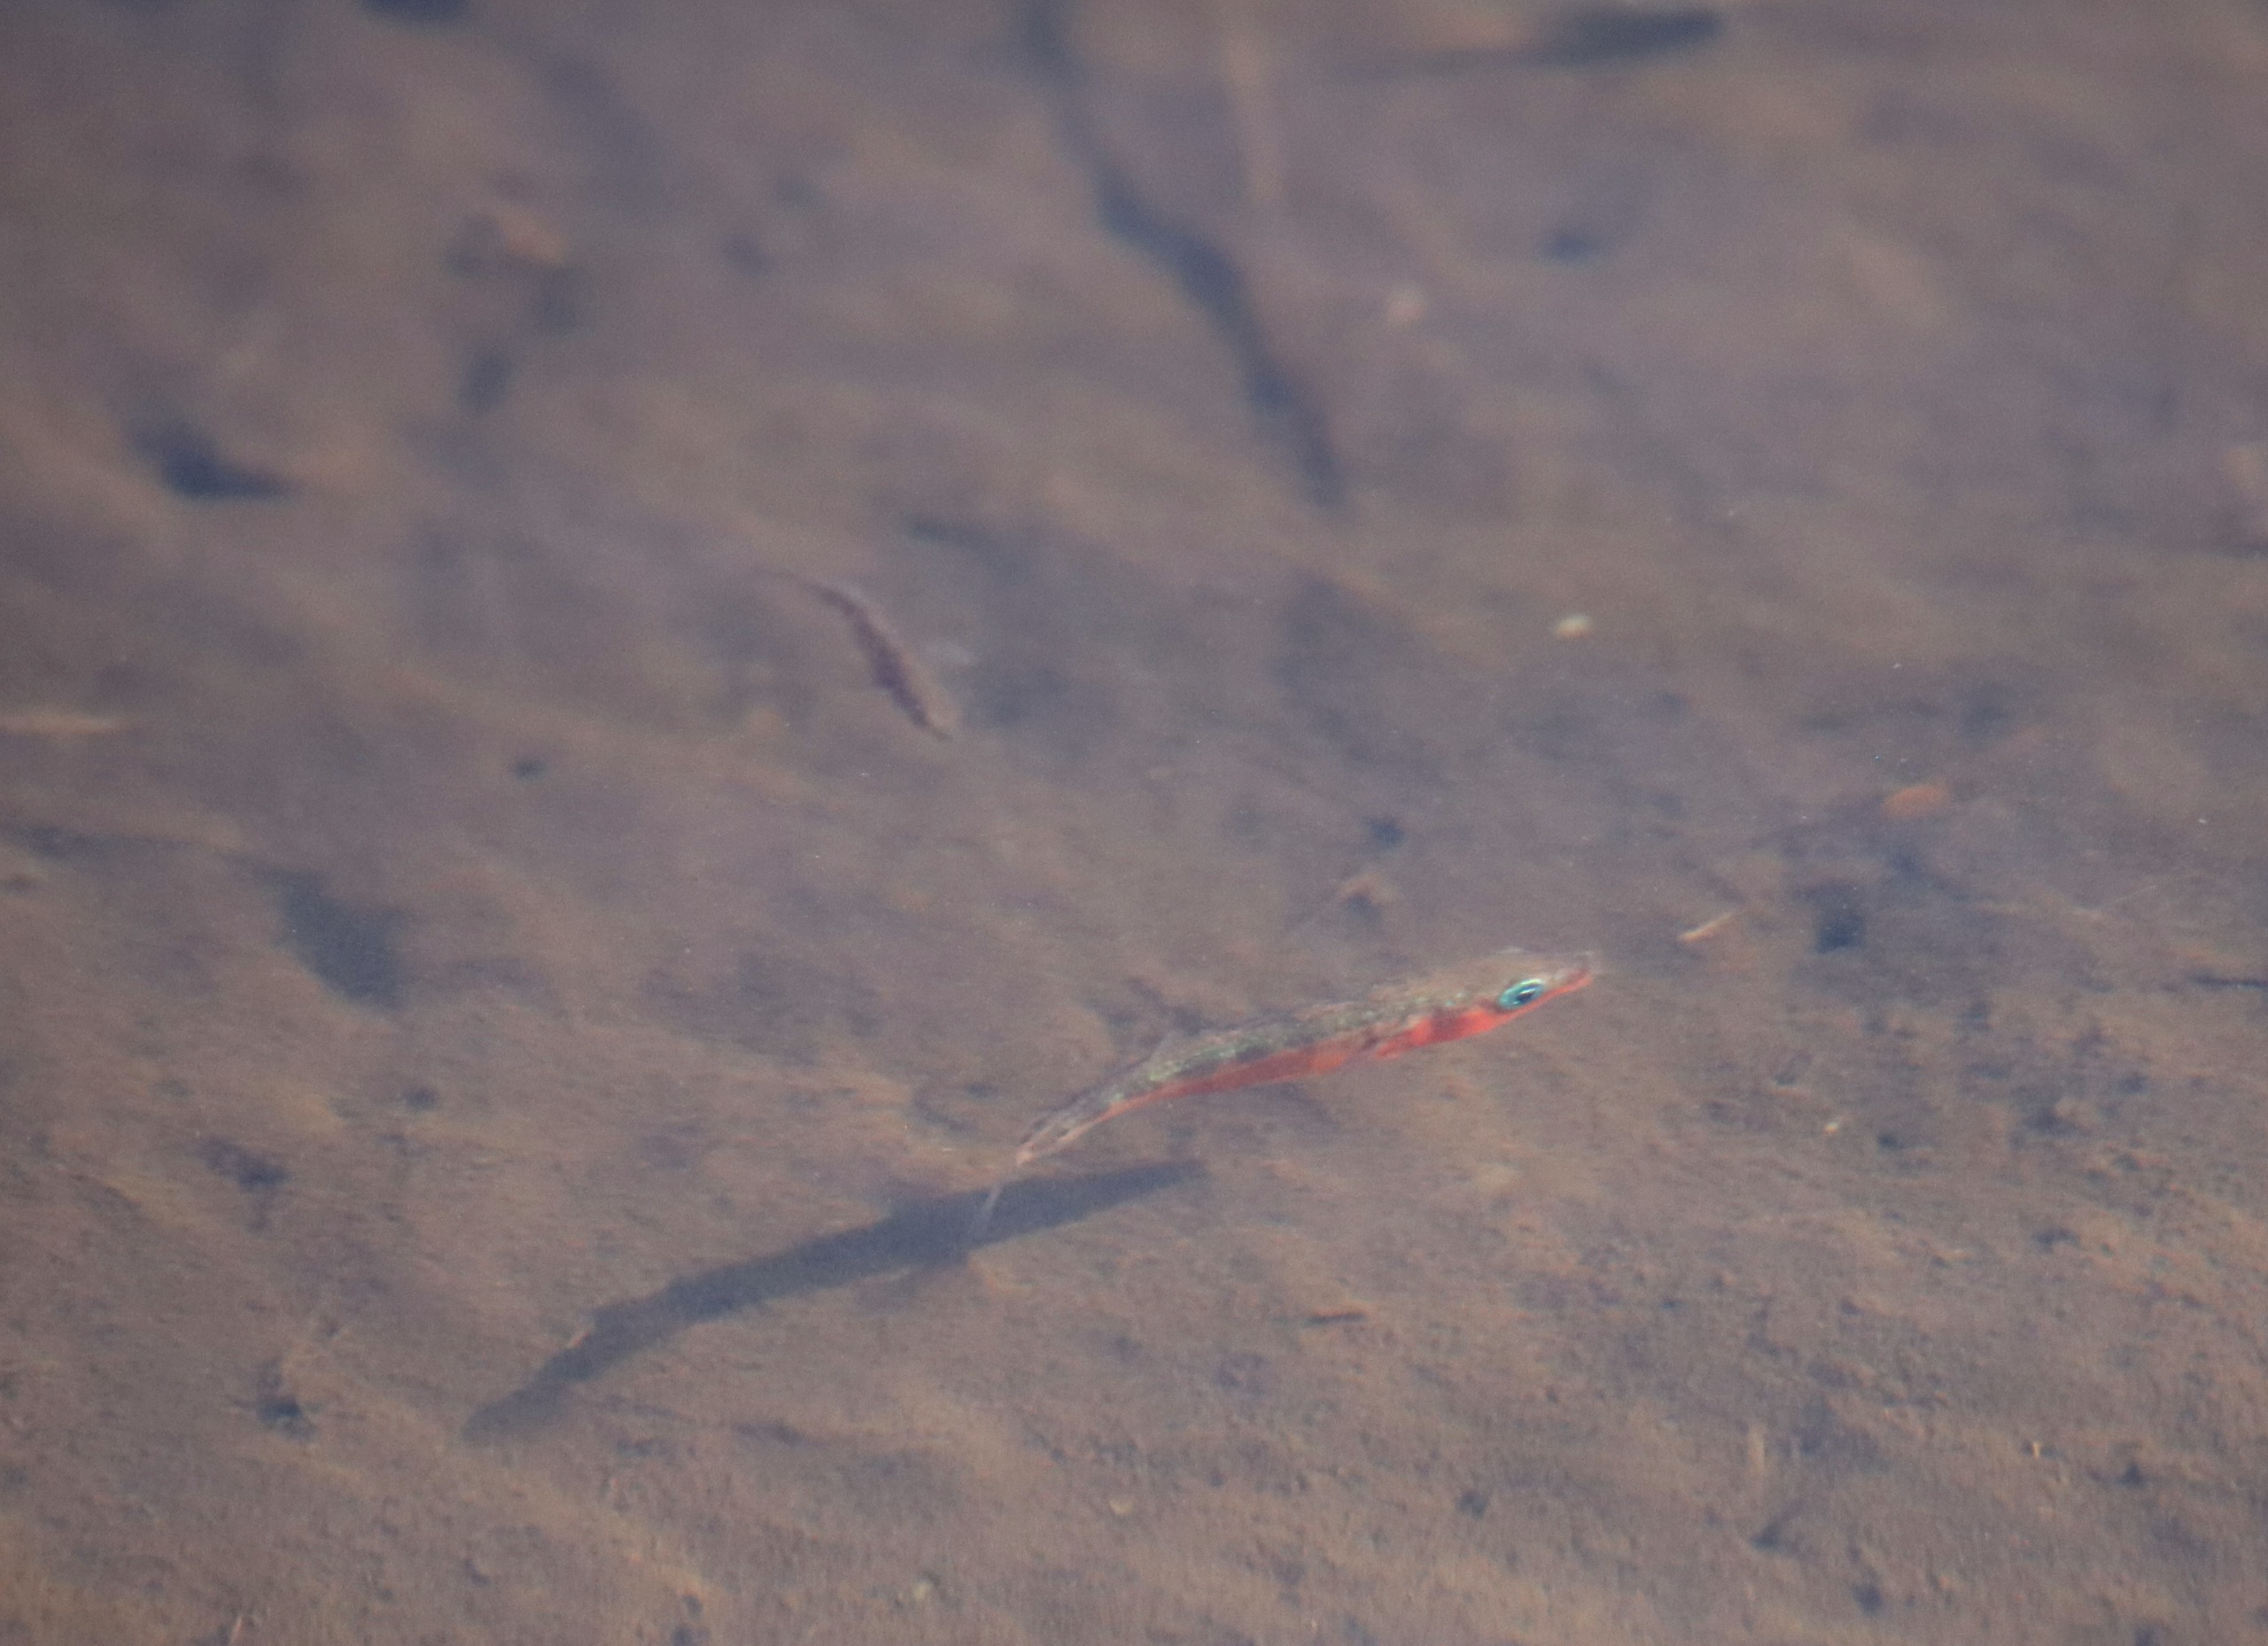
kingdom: Animalia
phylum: Chordata
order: Gasterosteiformes
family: Gasterosteidae
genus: Gasterosteus
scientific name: Gasterosteus aculeatus
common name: Trepigget hundestejle
